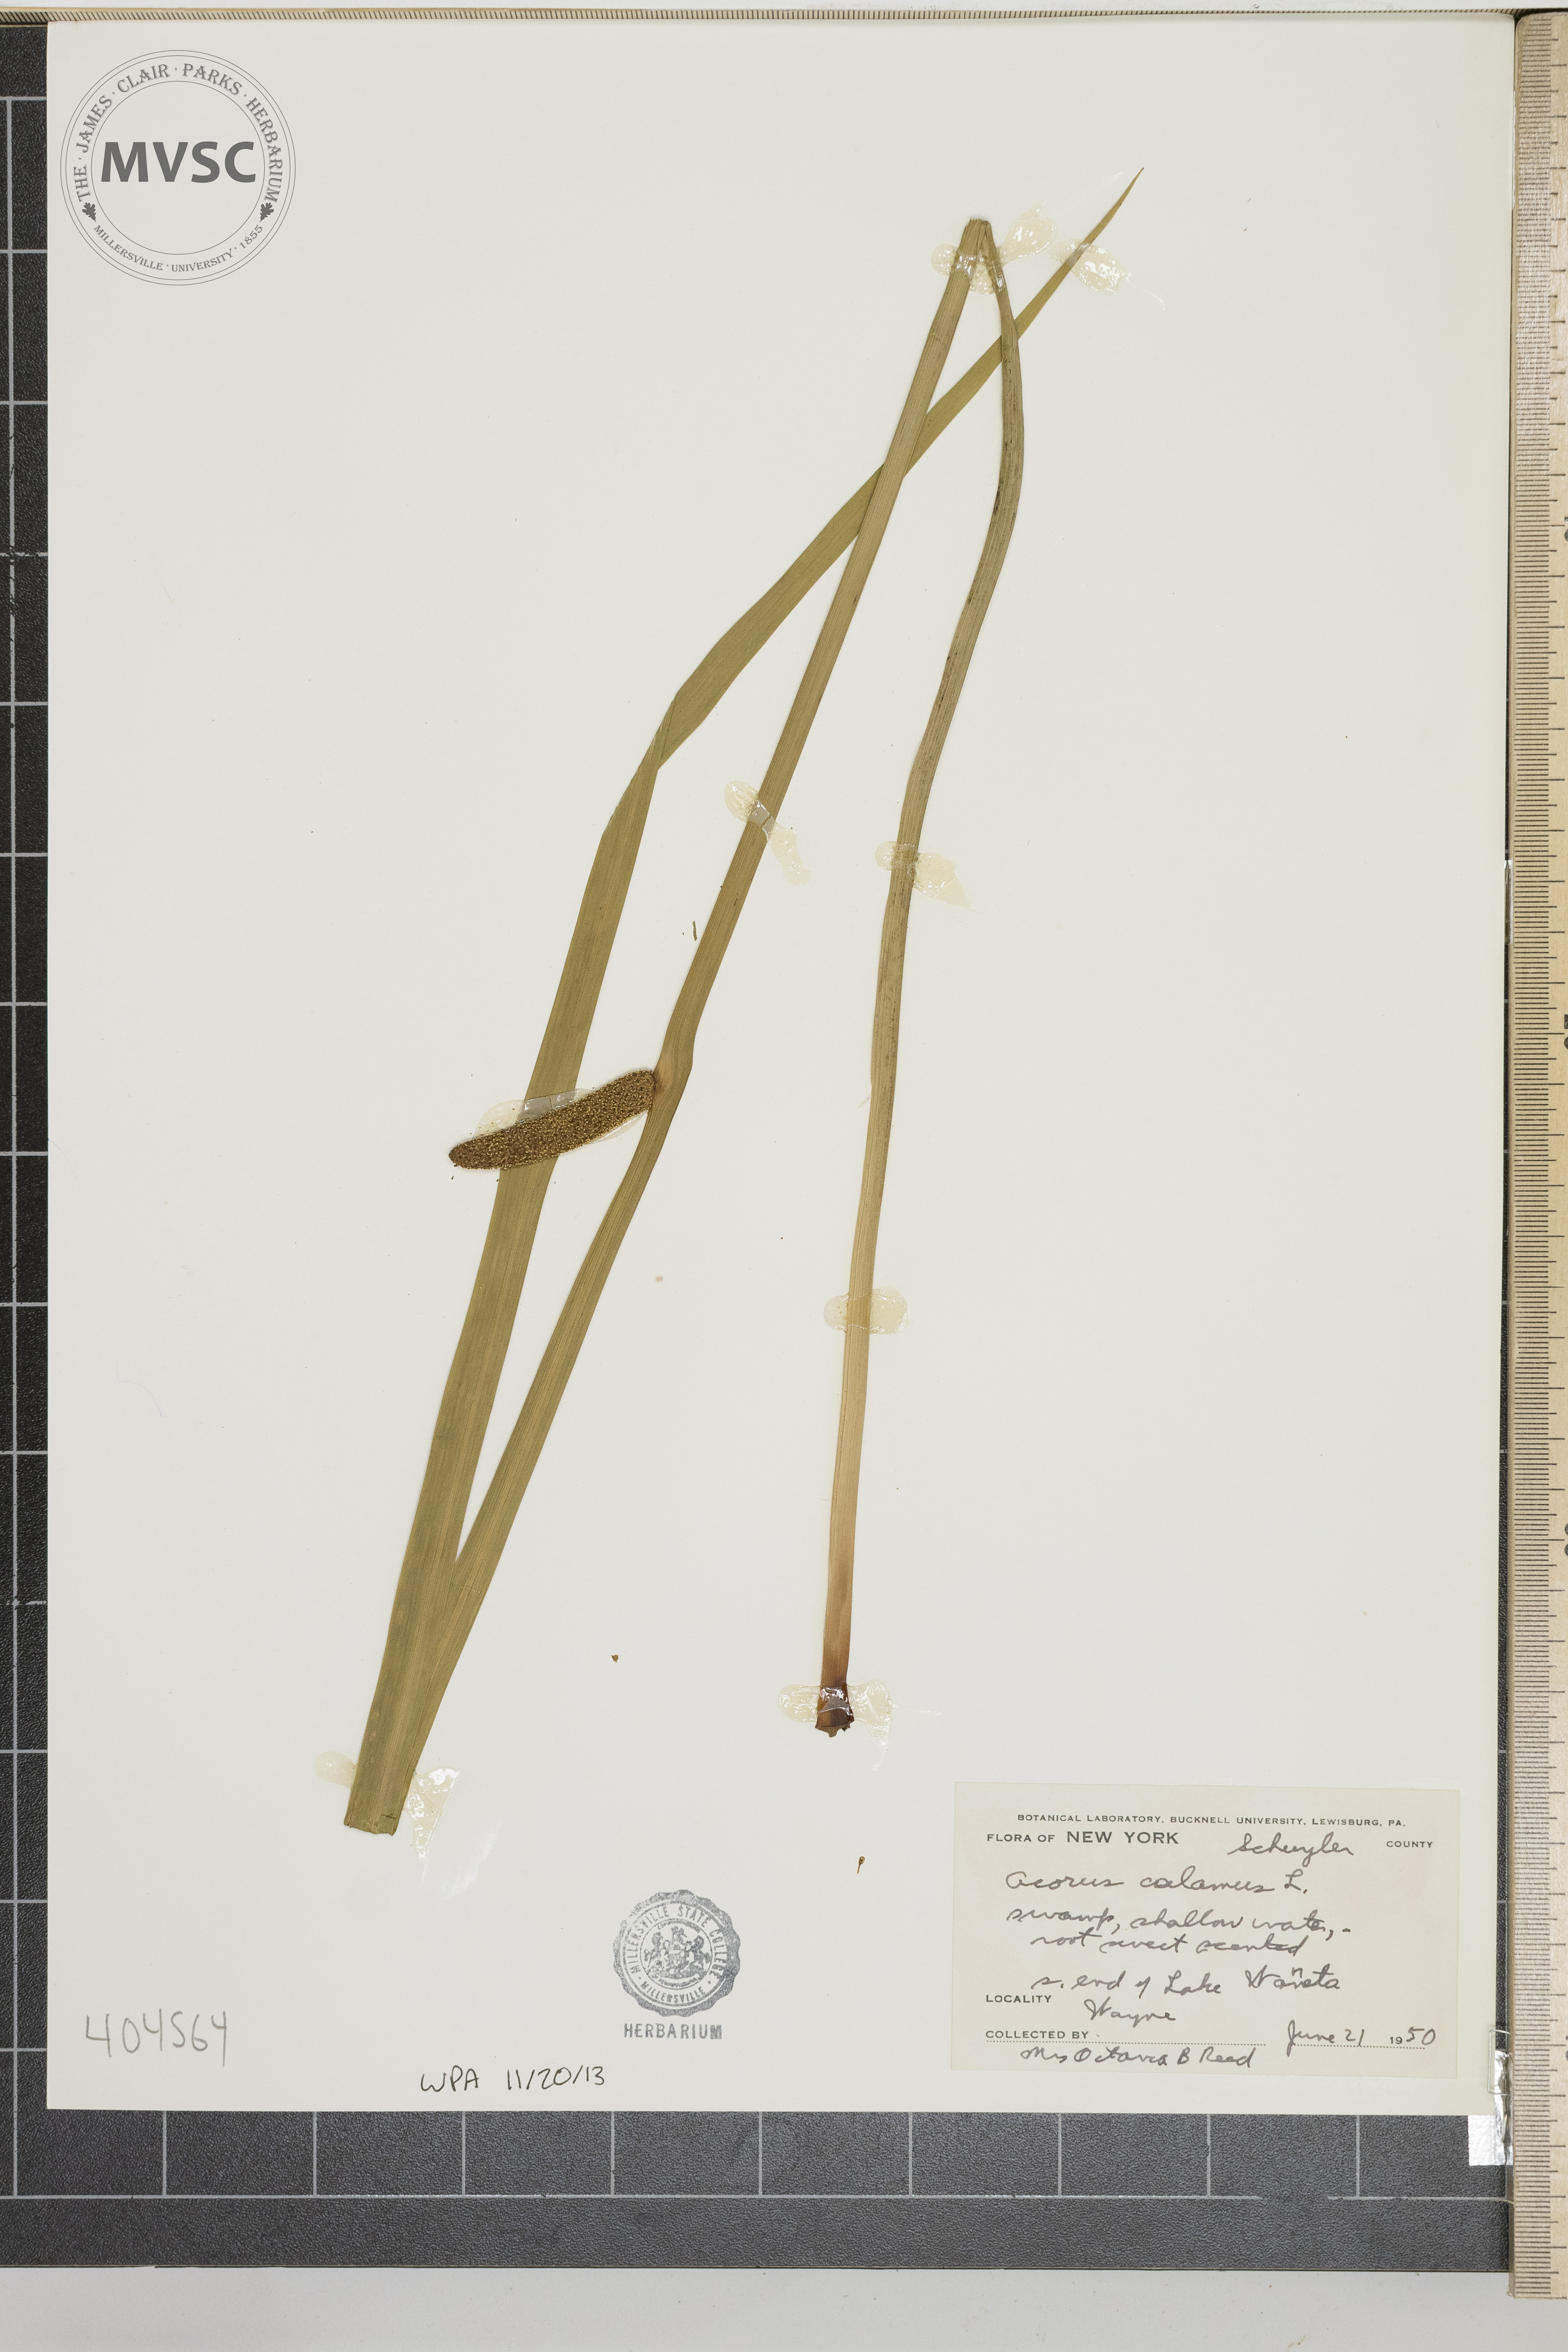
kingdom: Plantae
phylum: Tracheophyta
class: Liliopsida
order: Acorales
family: Acoraceae
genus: Acorus
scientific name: Acorus calamus
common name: Sweet-flag
